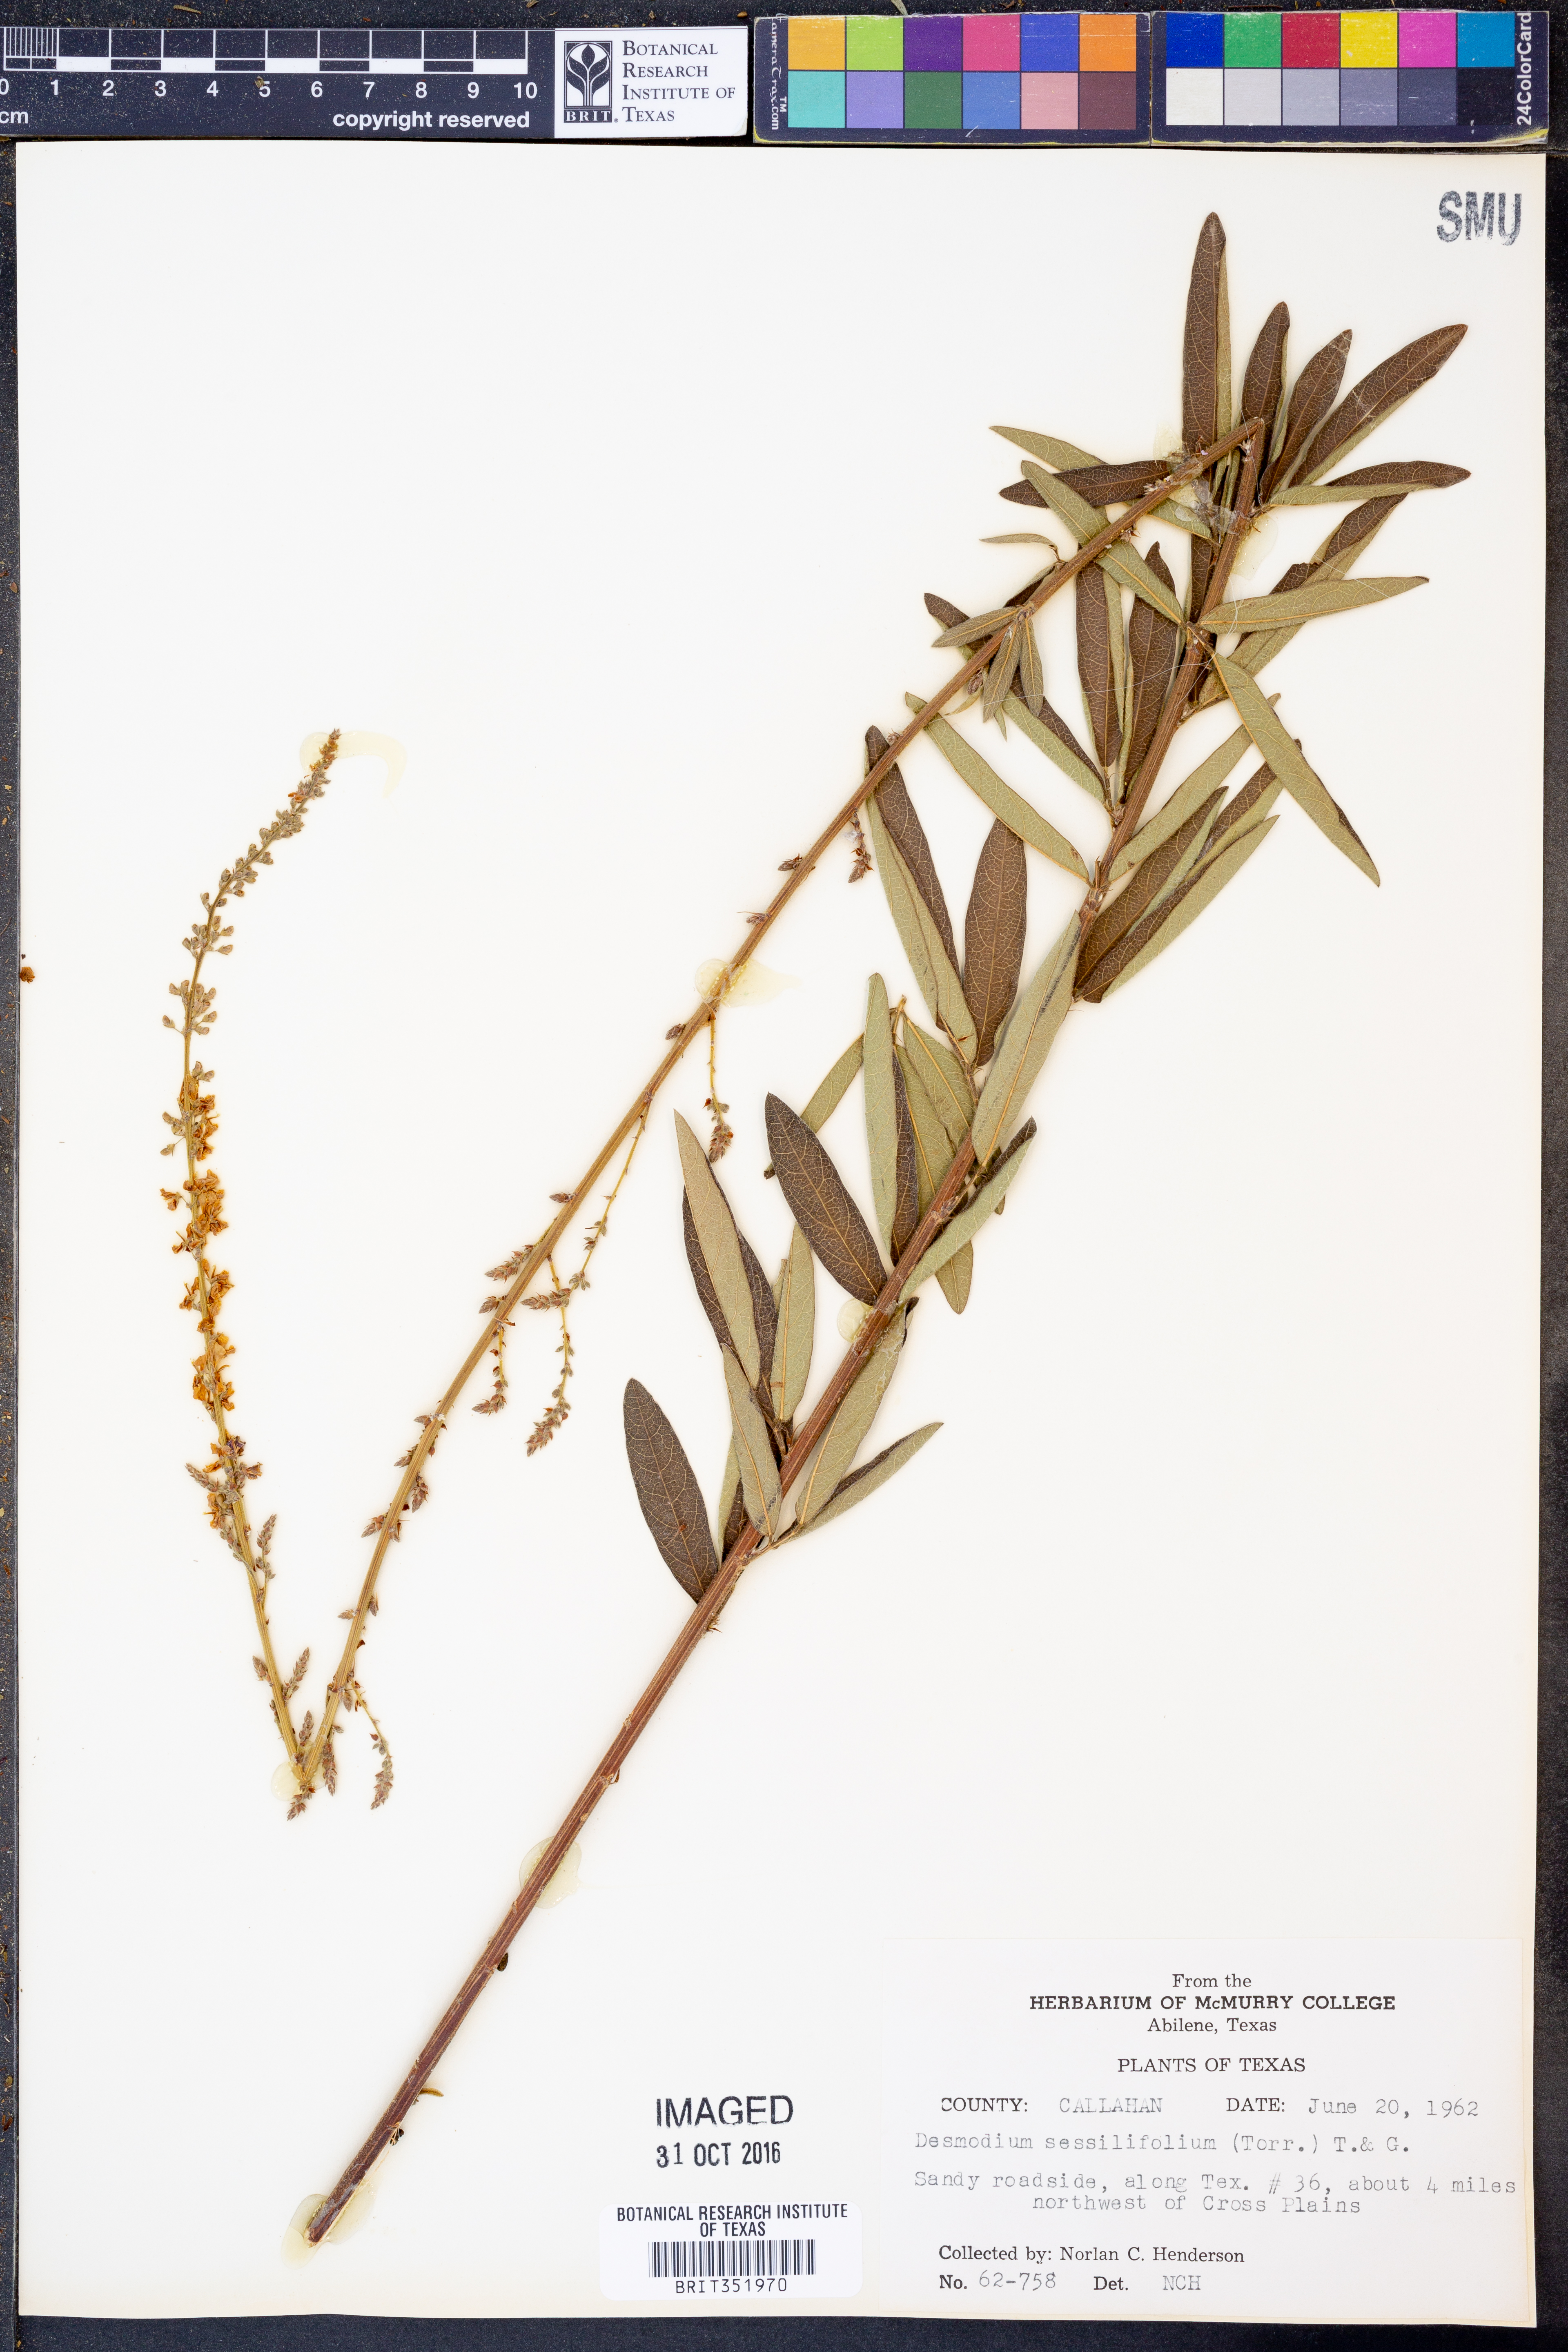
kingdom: Plantae
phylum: Tracheophyta
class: Magnoliopsida
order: Fabales
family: Fabaceae
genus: Desmodium
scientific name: Desmodium sessilifolium
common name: Sessile tick-clover
